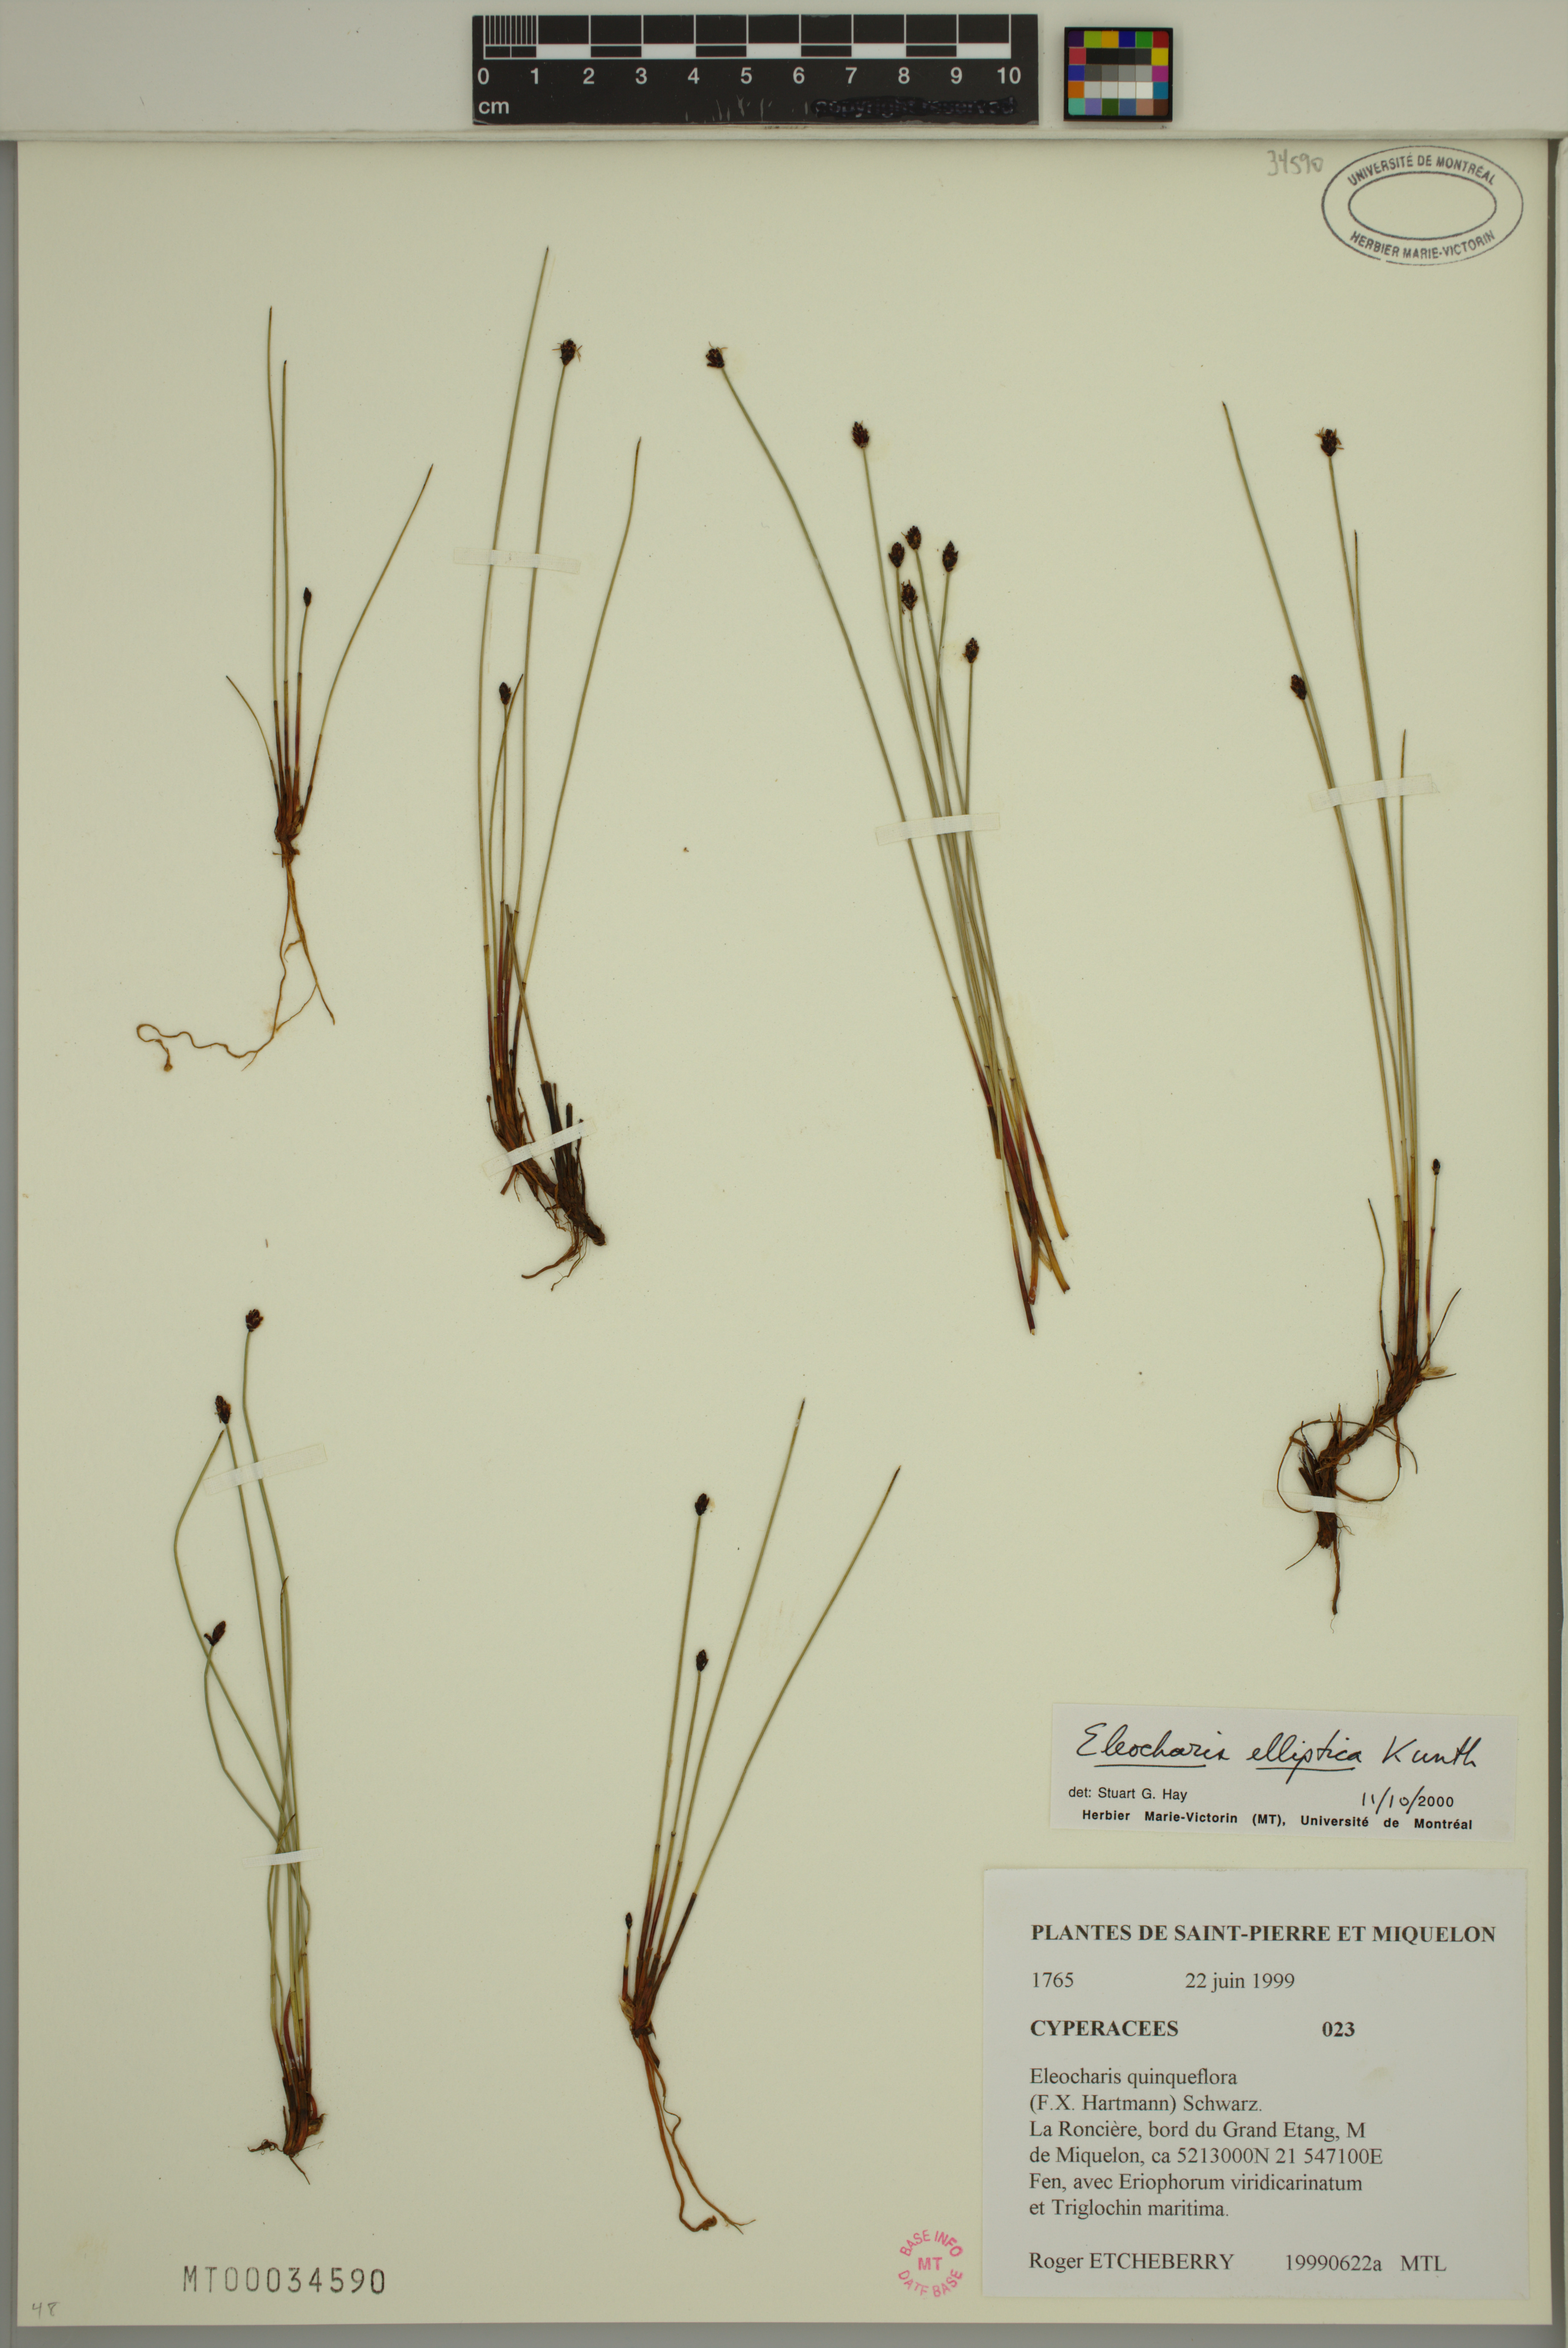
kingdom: Plantae
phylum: Tracheophyta
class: Liliopsida
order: Poales
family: Cyperaceae
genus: Eleocharis
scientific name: Eleocharis elliptica
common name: Capitate spikerush
